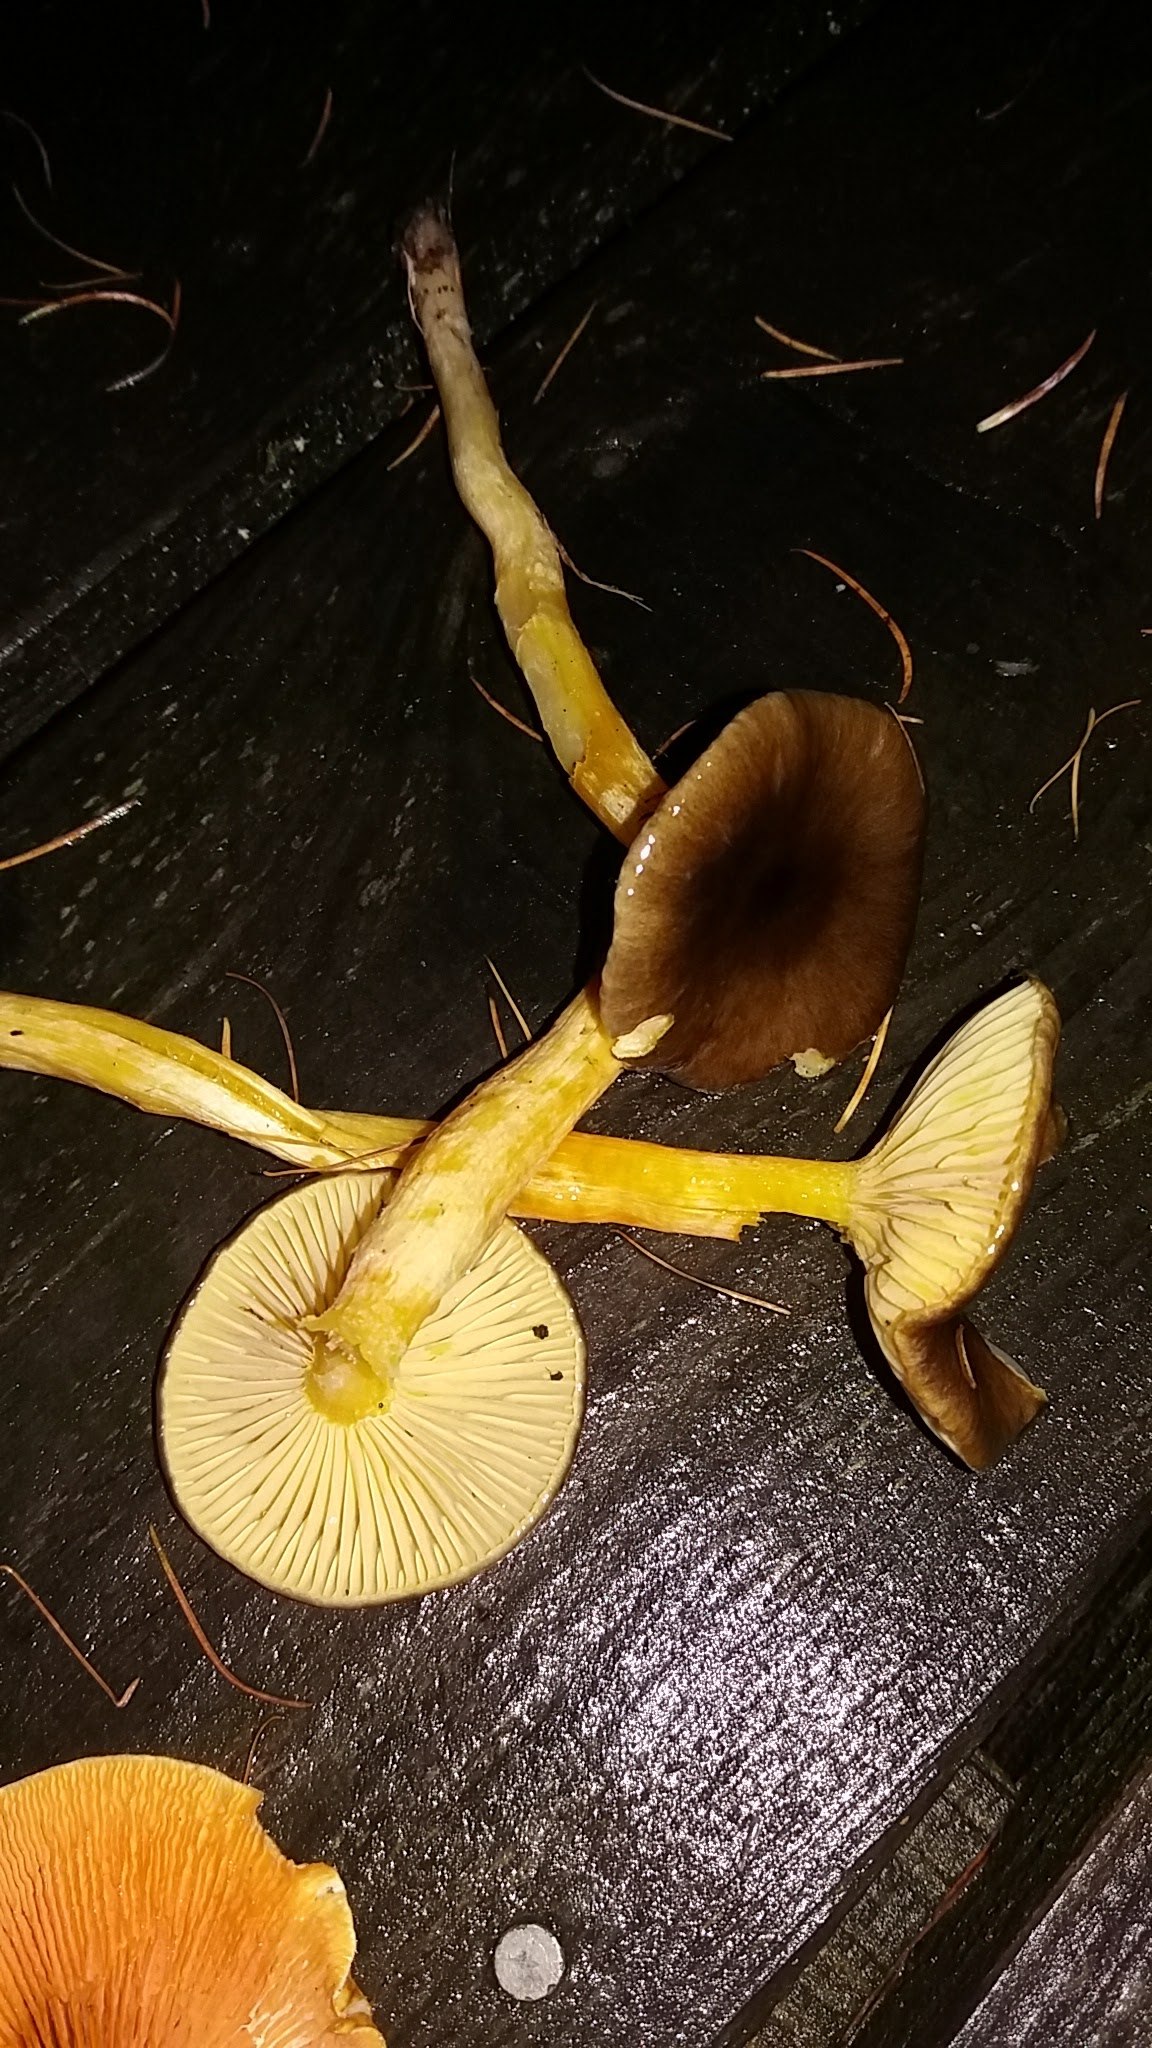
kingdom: Fungi
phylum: Basidiomycota
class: Agaricomycetes
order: Agaricales
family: Hygrophoraceae
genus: Hygrophorus
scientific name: Hygrophorus hypothejus
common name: frost-sneglehat
